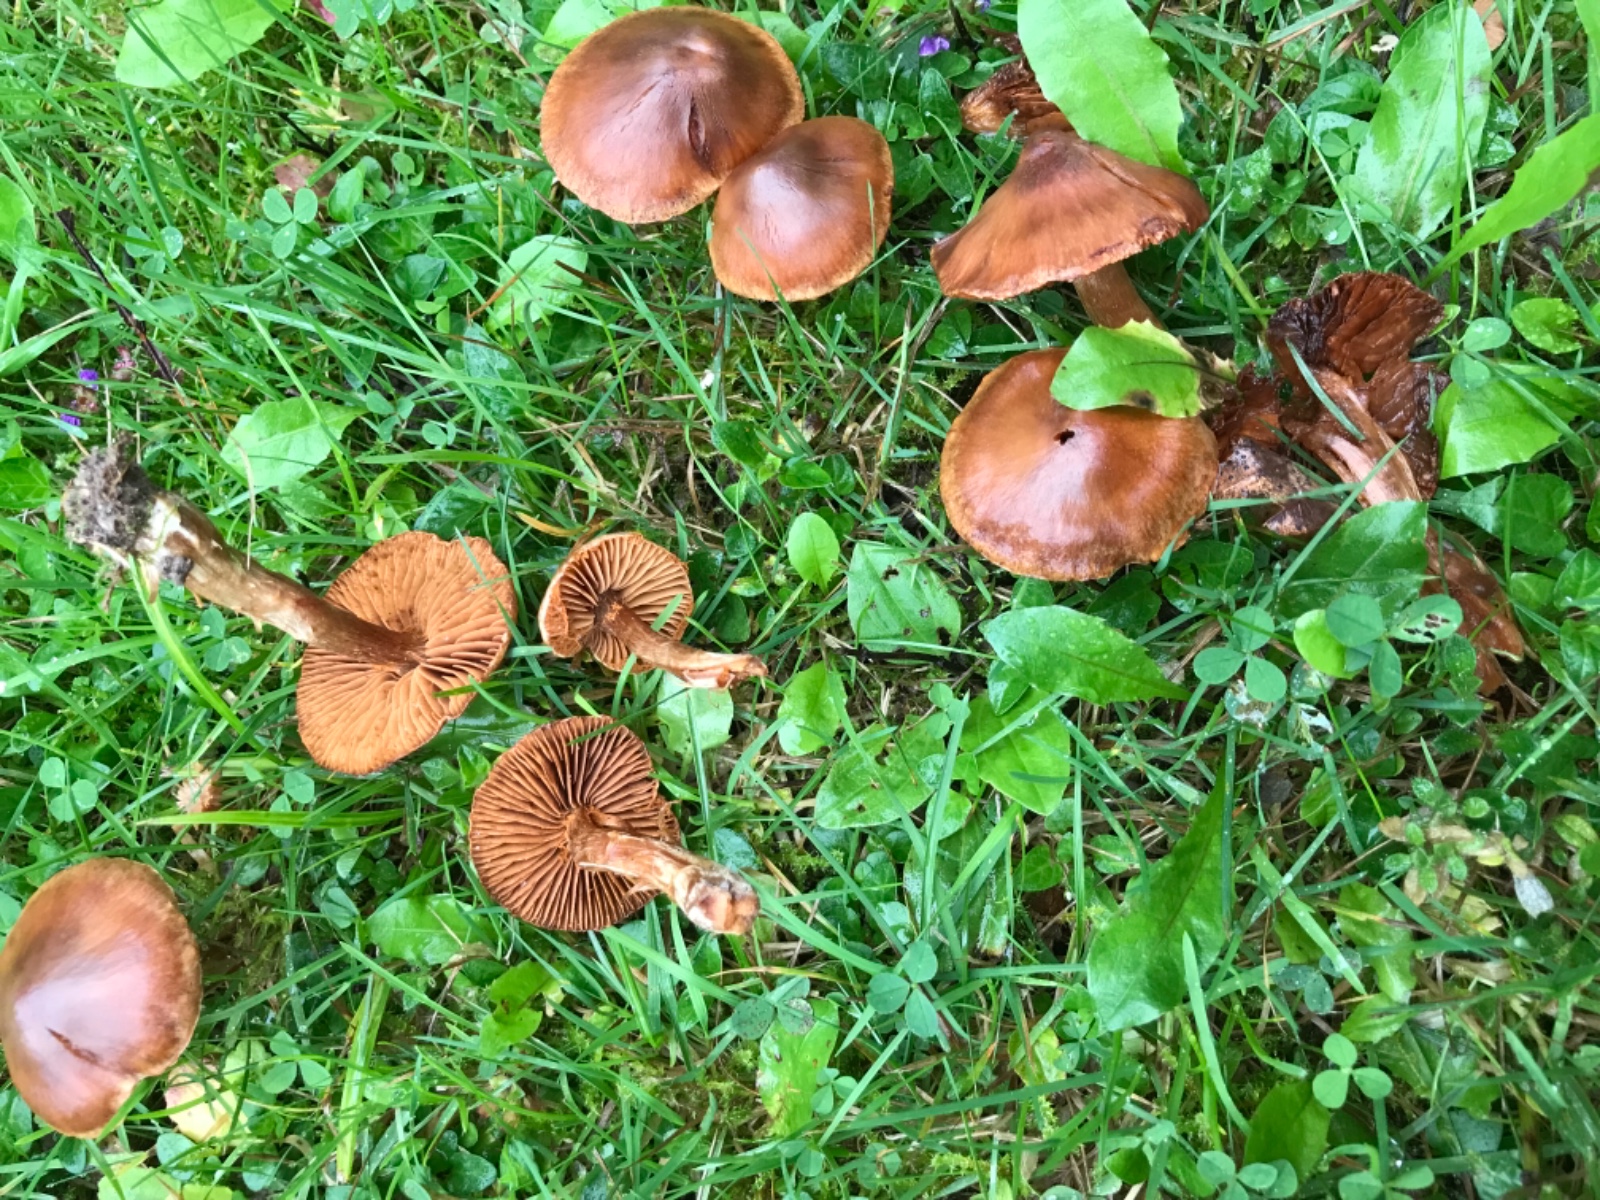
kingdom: Fungi
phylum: Basidiomycota
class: Agaricomycetes
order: Agaricales
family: Cortinariaceae
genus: Cortinarius
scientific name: Cortinarius
